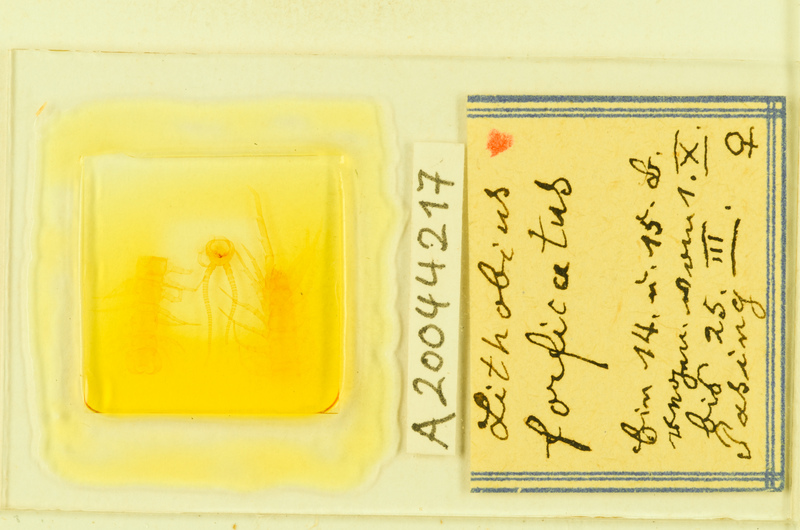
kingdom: Animalia
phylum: Arthropoda
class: Chilopoda
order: Lithobiomorpha
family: Lithobiidae
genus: Lithobius
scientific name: Lithobius forficatus
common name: Centipede
